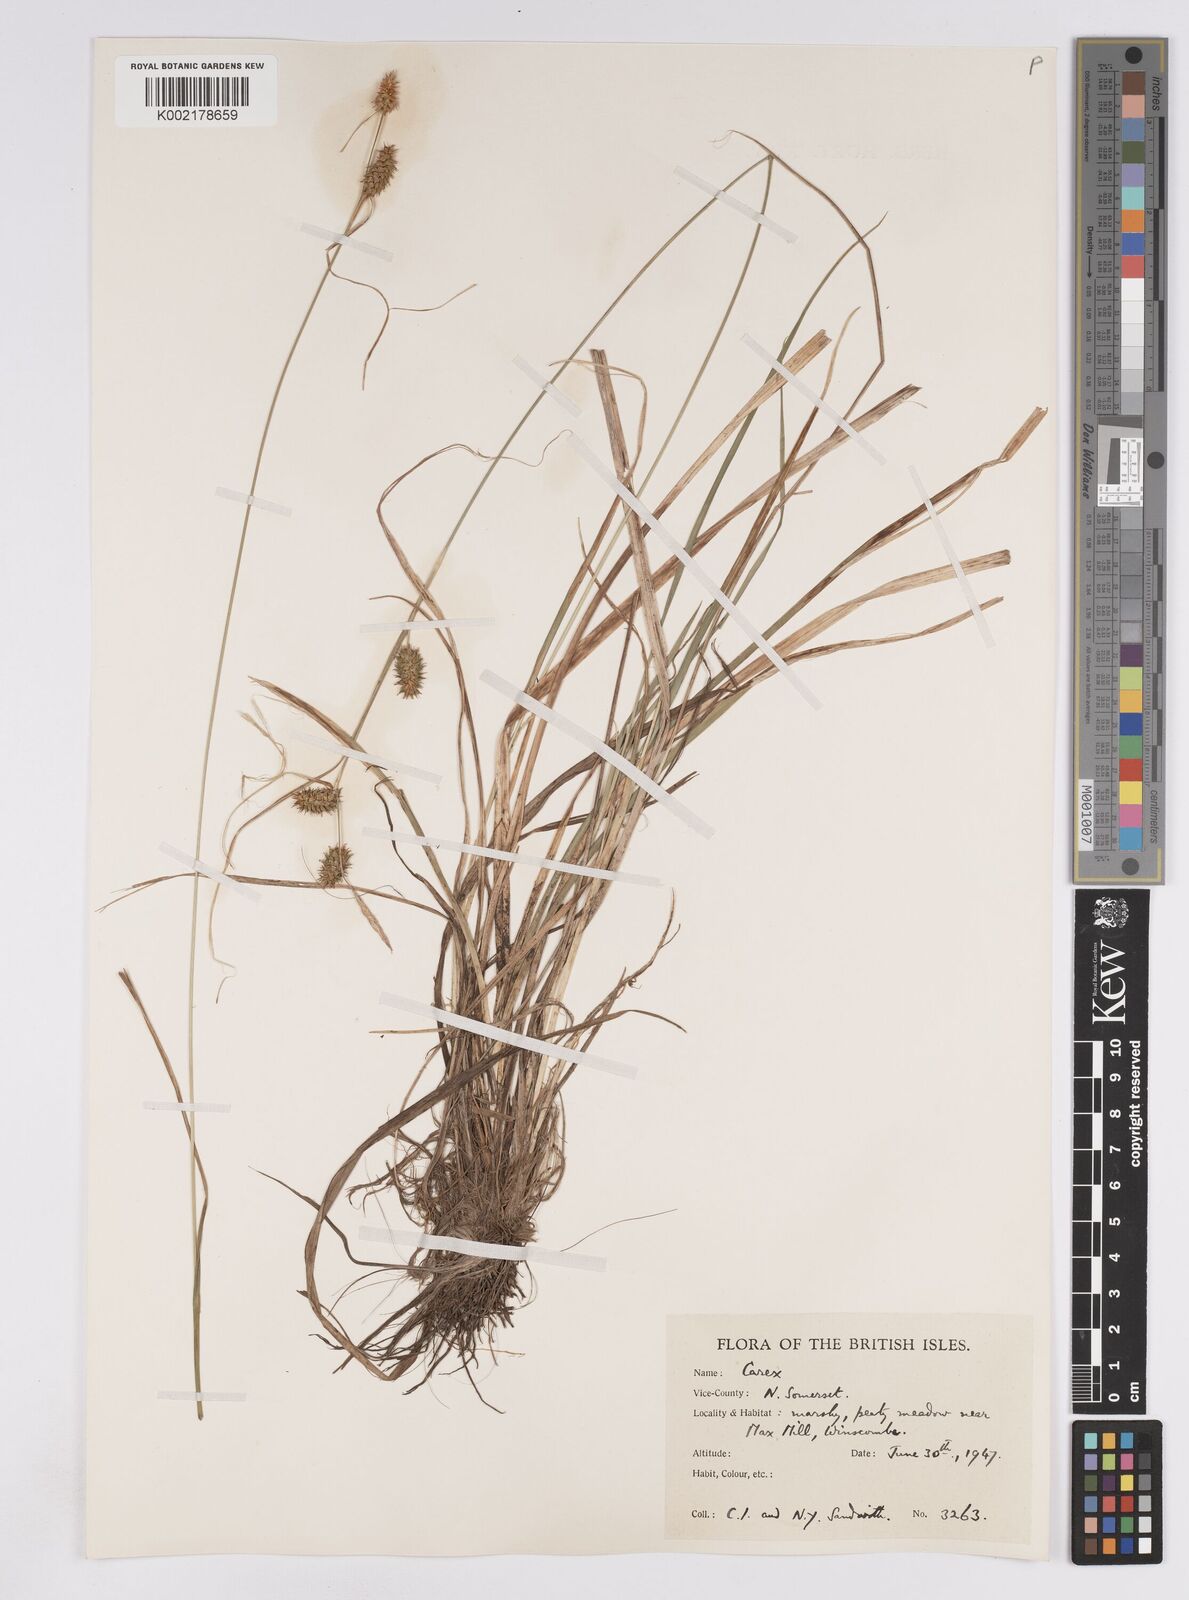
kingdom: Plantae
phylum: Tracheophyta
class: Liliopsida
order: Poales
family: Cyperaceae
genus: Carex
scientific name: Carex lepidocarpa
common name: Long-stalked yellow-sedge
